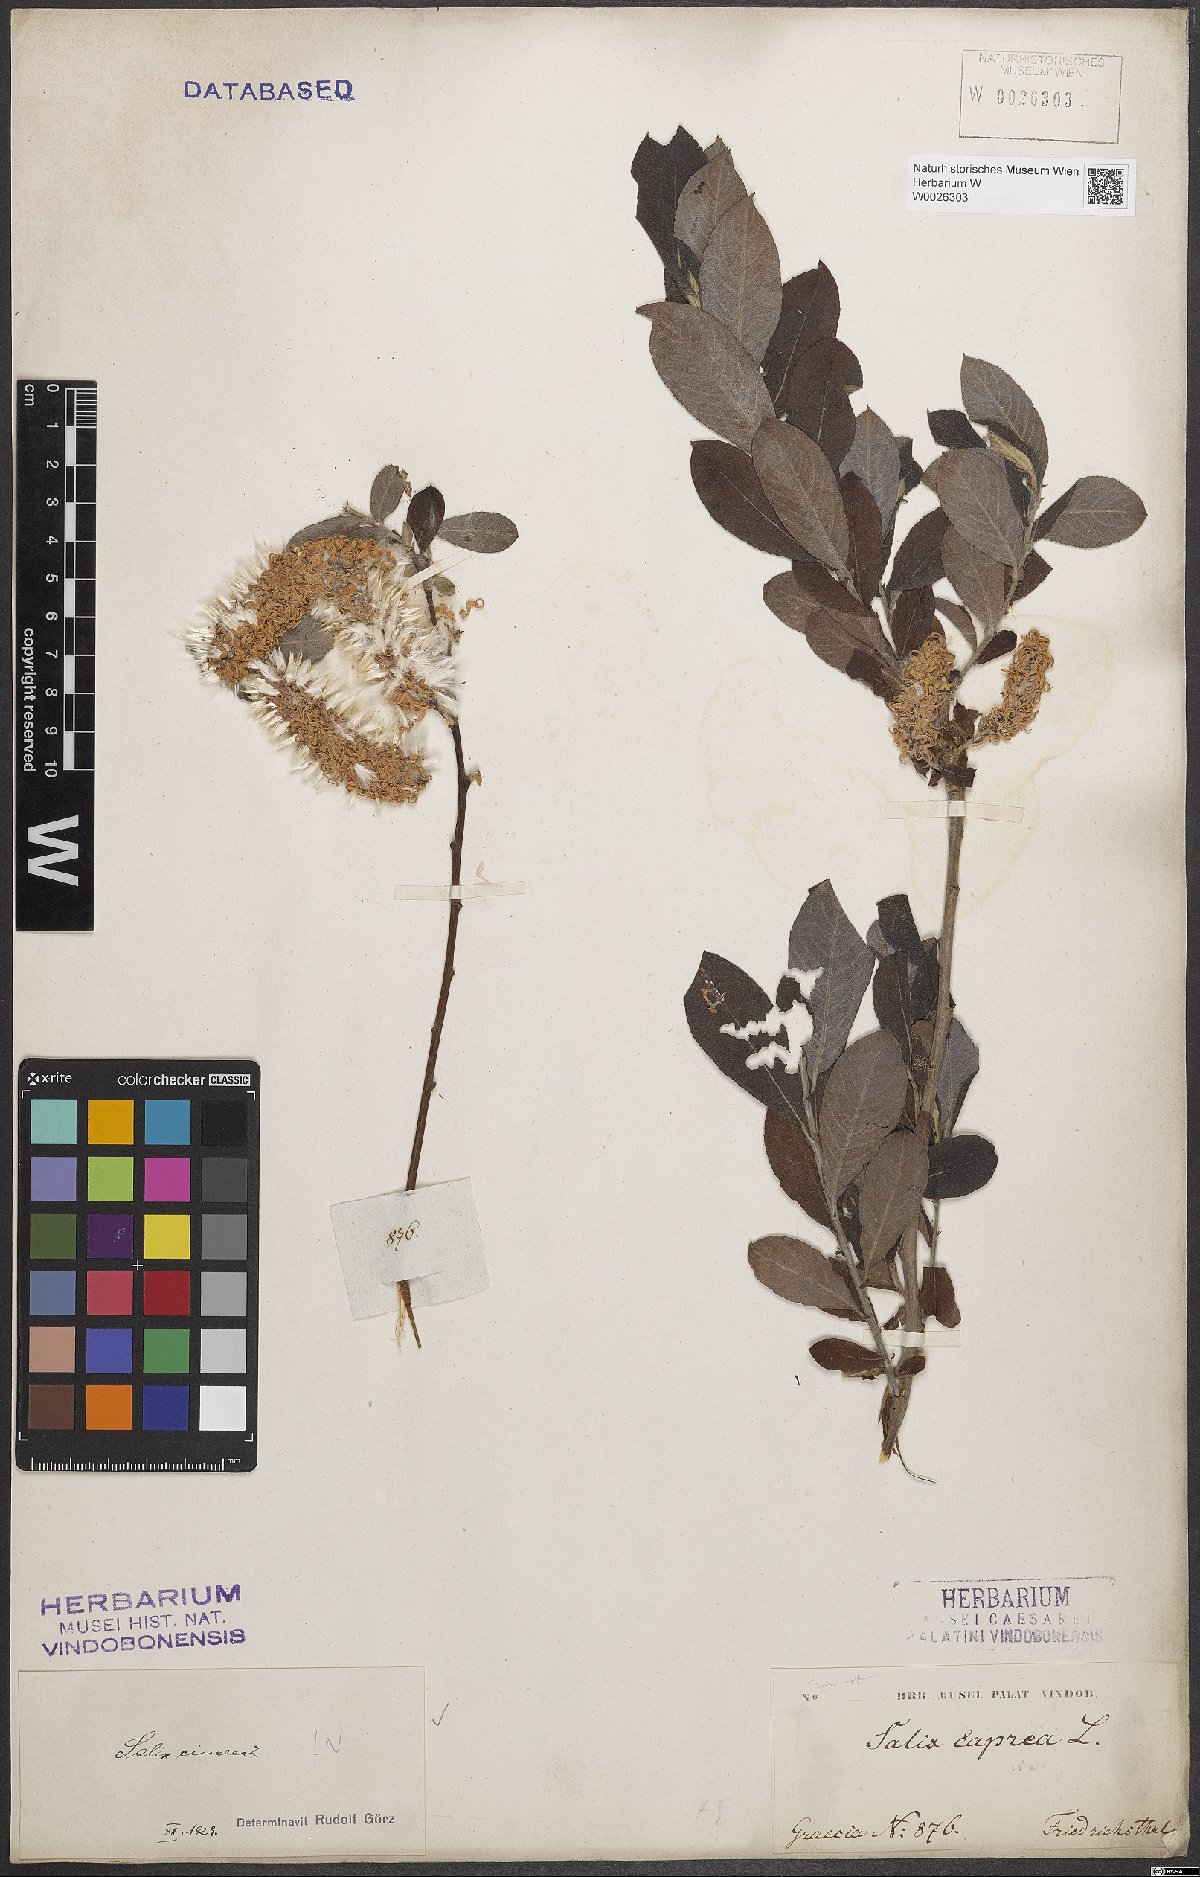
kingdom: Plantae
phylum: Tracheophyta
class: Magnoliopsida
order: Malpighiales
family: Salicaceae
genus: Salix
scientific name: Salix cinerea
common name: Common sallow
